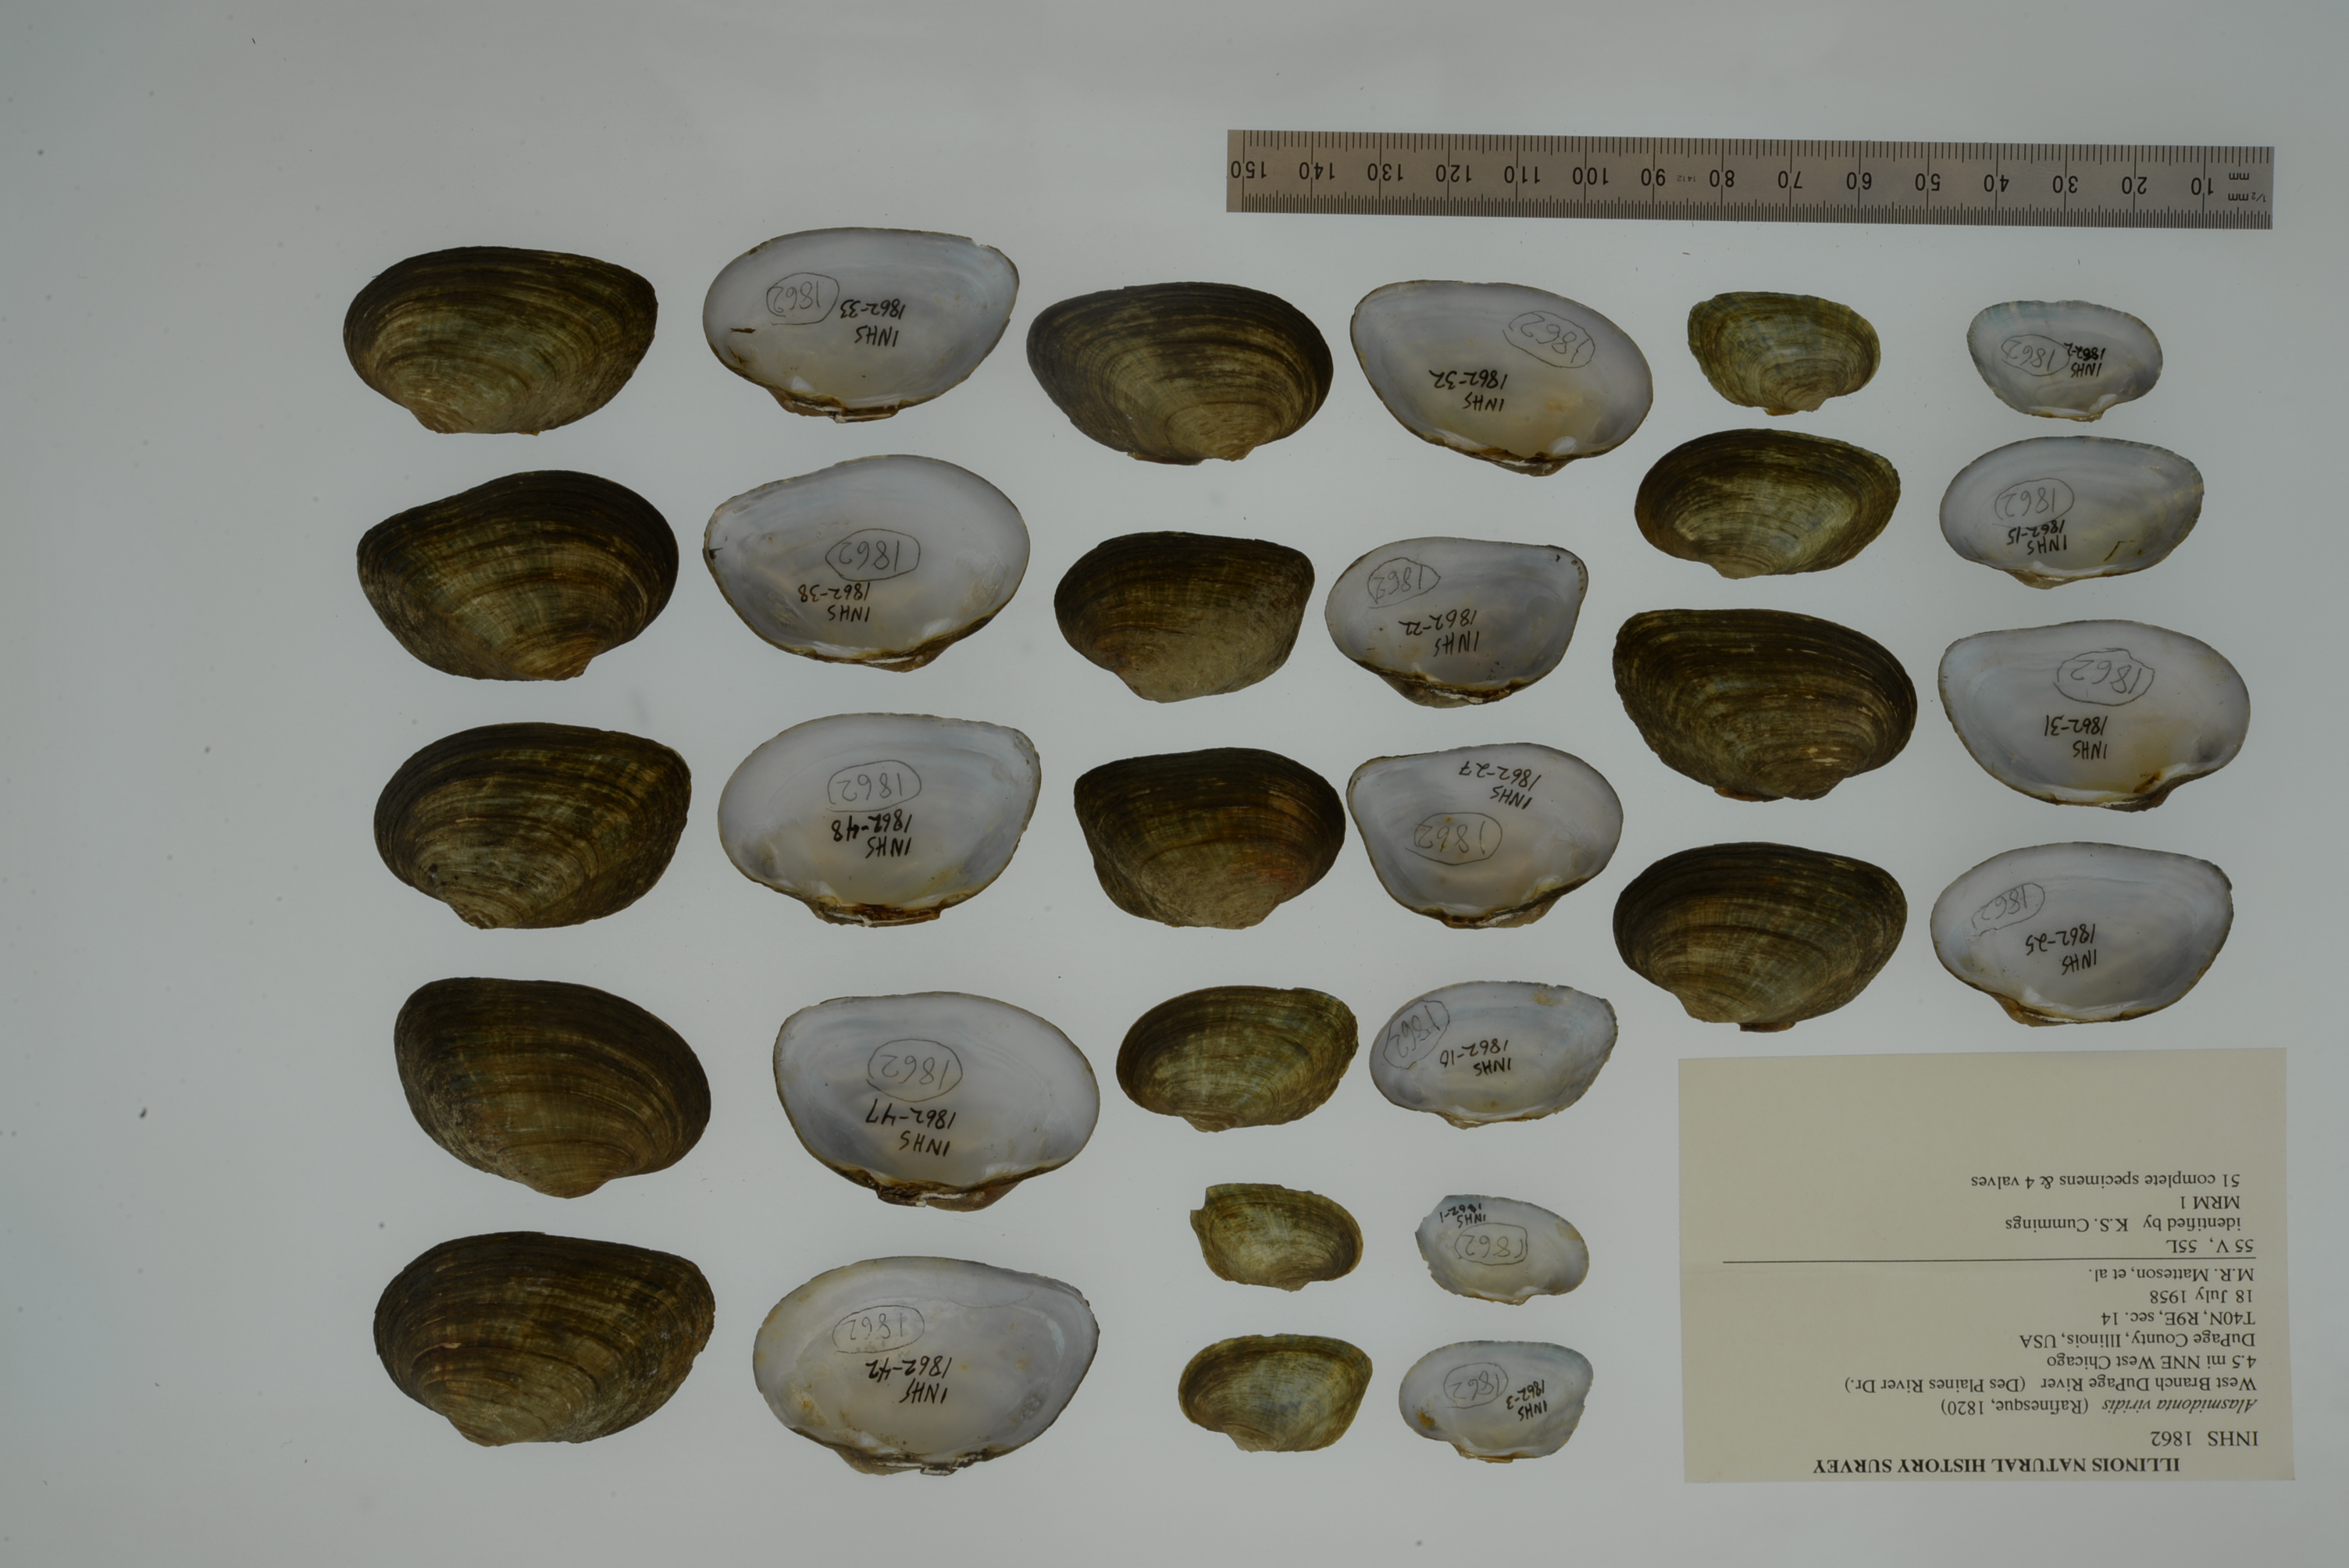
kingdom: Animalia
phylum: Mollusca
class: Bivalvia
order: Unionida
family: Unionidae
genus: Alasmidonta
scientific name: Alasmidonta viridis
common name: Slippershell mussel
